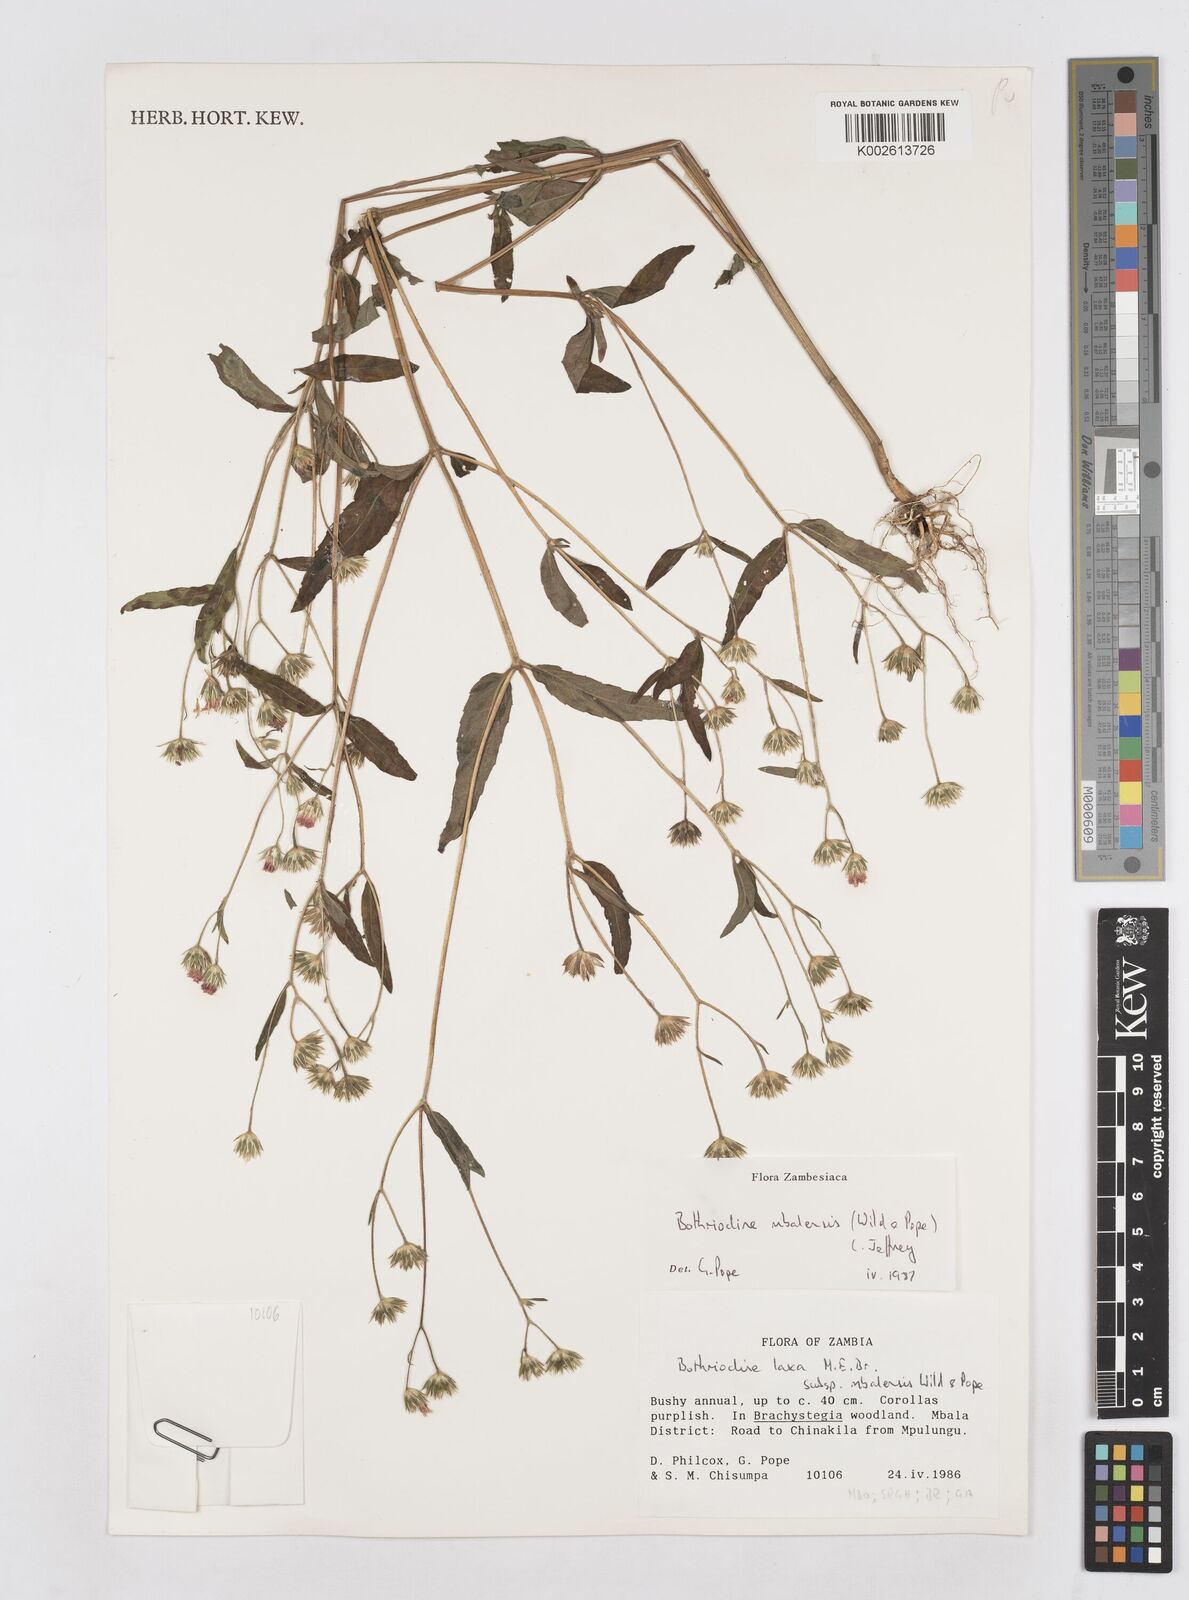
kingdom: Plantae
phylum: Tracheophyta
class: Magnoliopsida
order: Asterales
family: Asteraceae
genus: Bothriocline
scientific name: Bothriocline mbalensis
